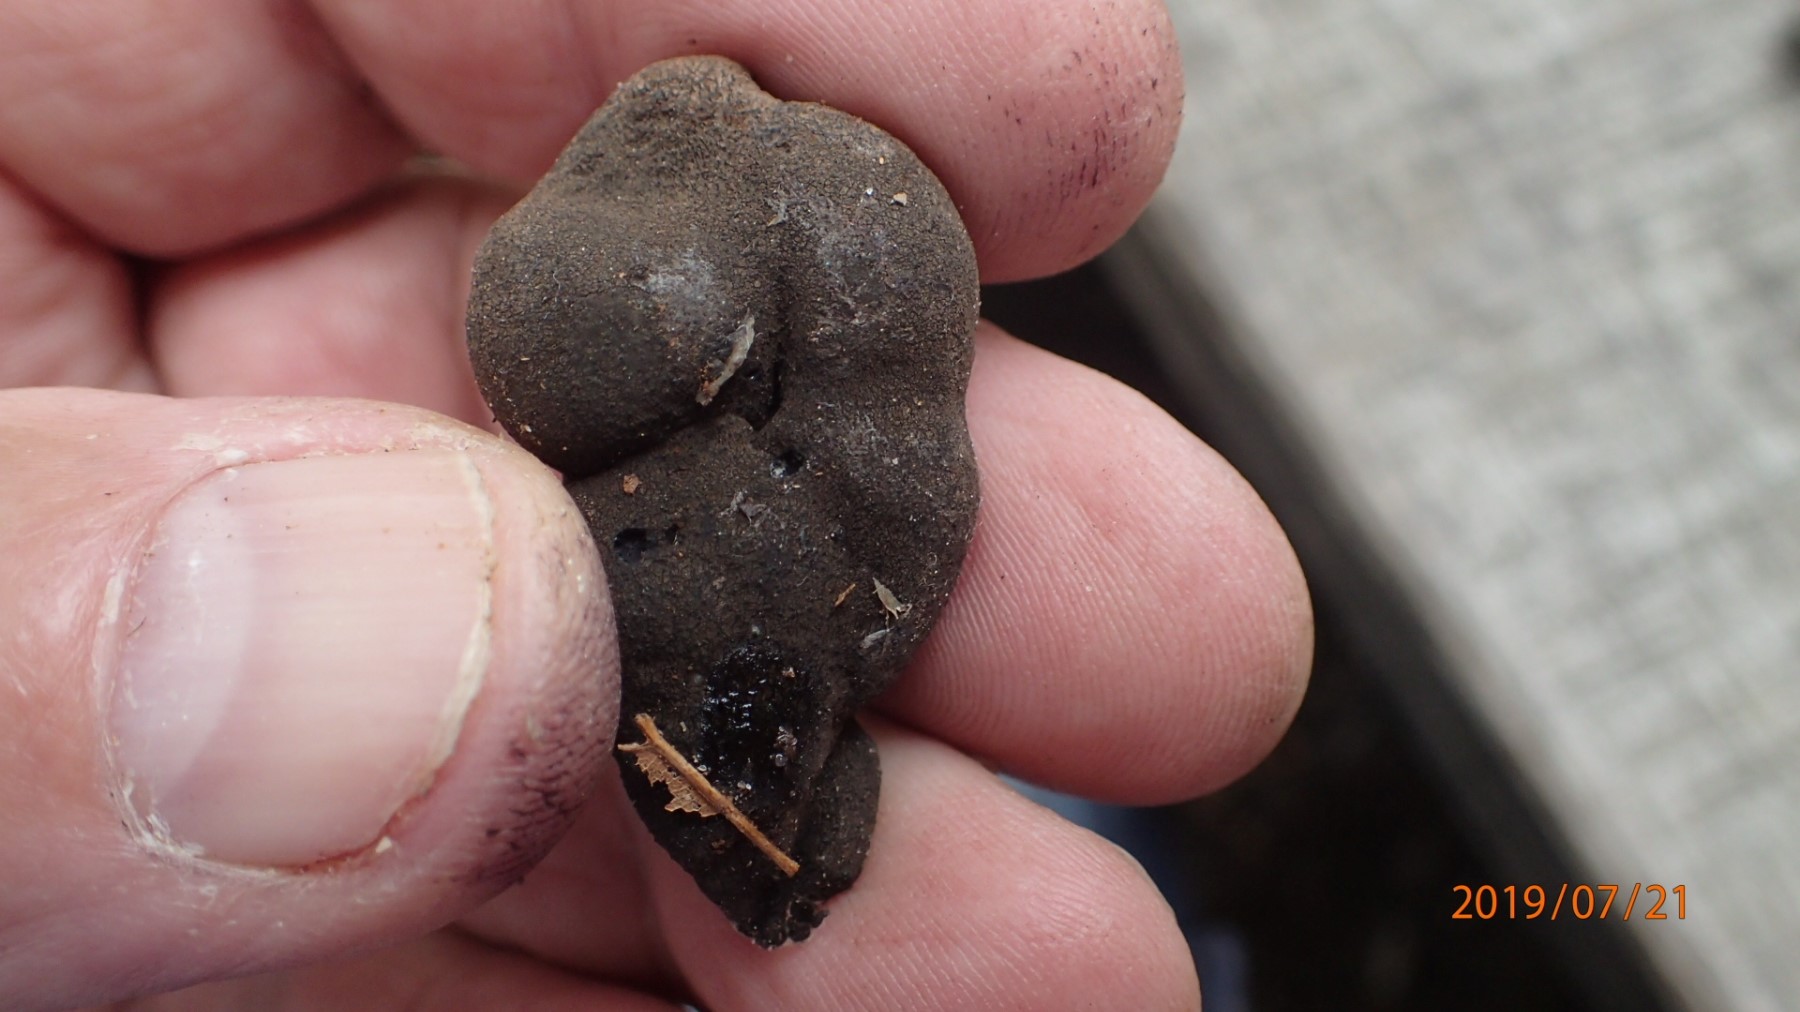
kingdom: Fungi
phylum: Ascomycota
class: Sordariomycetes
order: Xylariales
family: Xylariaceae
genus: Xylaria
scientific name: Xylaria polymorpha
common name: kølle-stødsvamp
